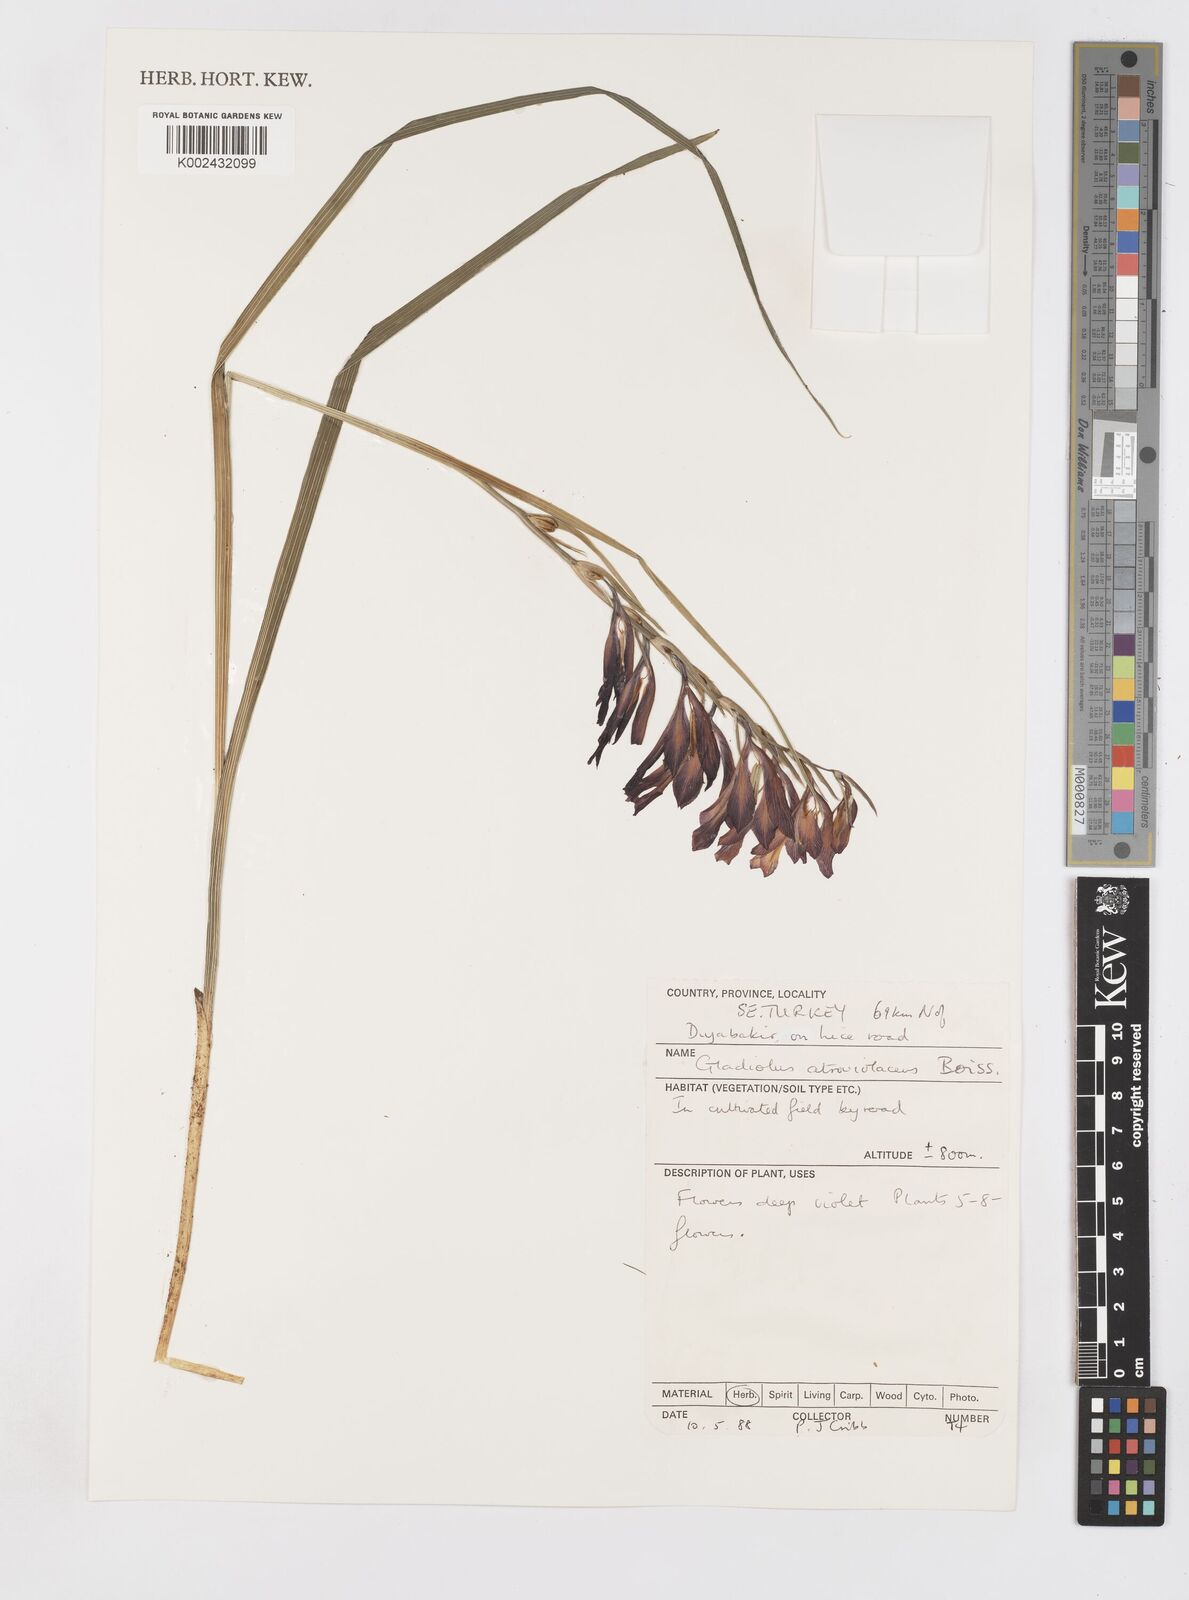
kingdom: Plantae
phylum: Tracheophyta
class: Liliopsida
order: Asparagales
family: Iridaceae
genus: Gladiolus
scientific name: Gladiolus atroviolaceus
